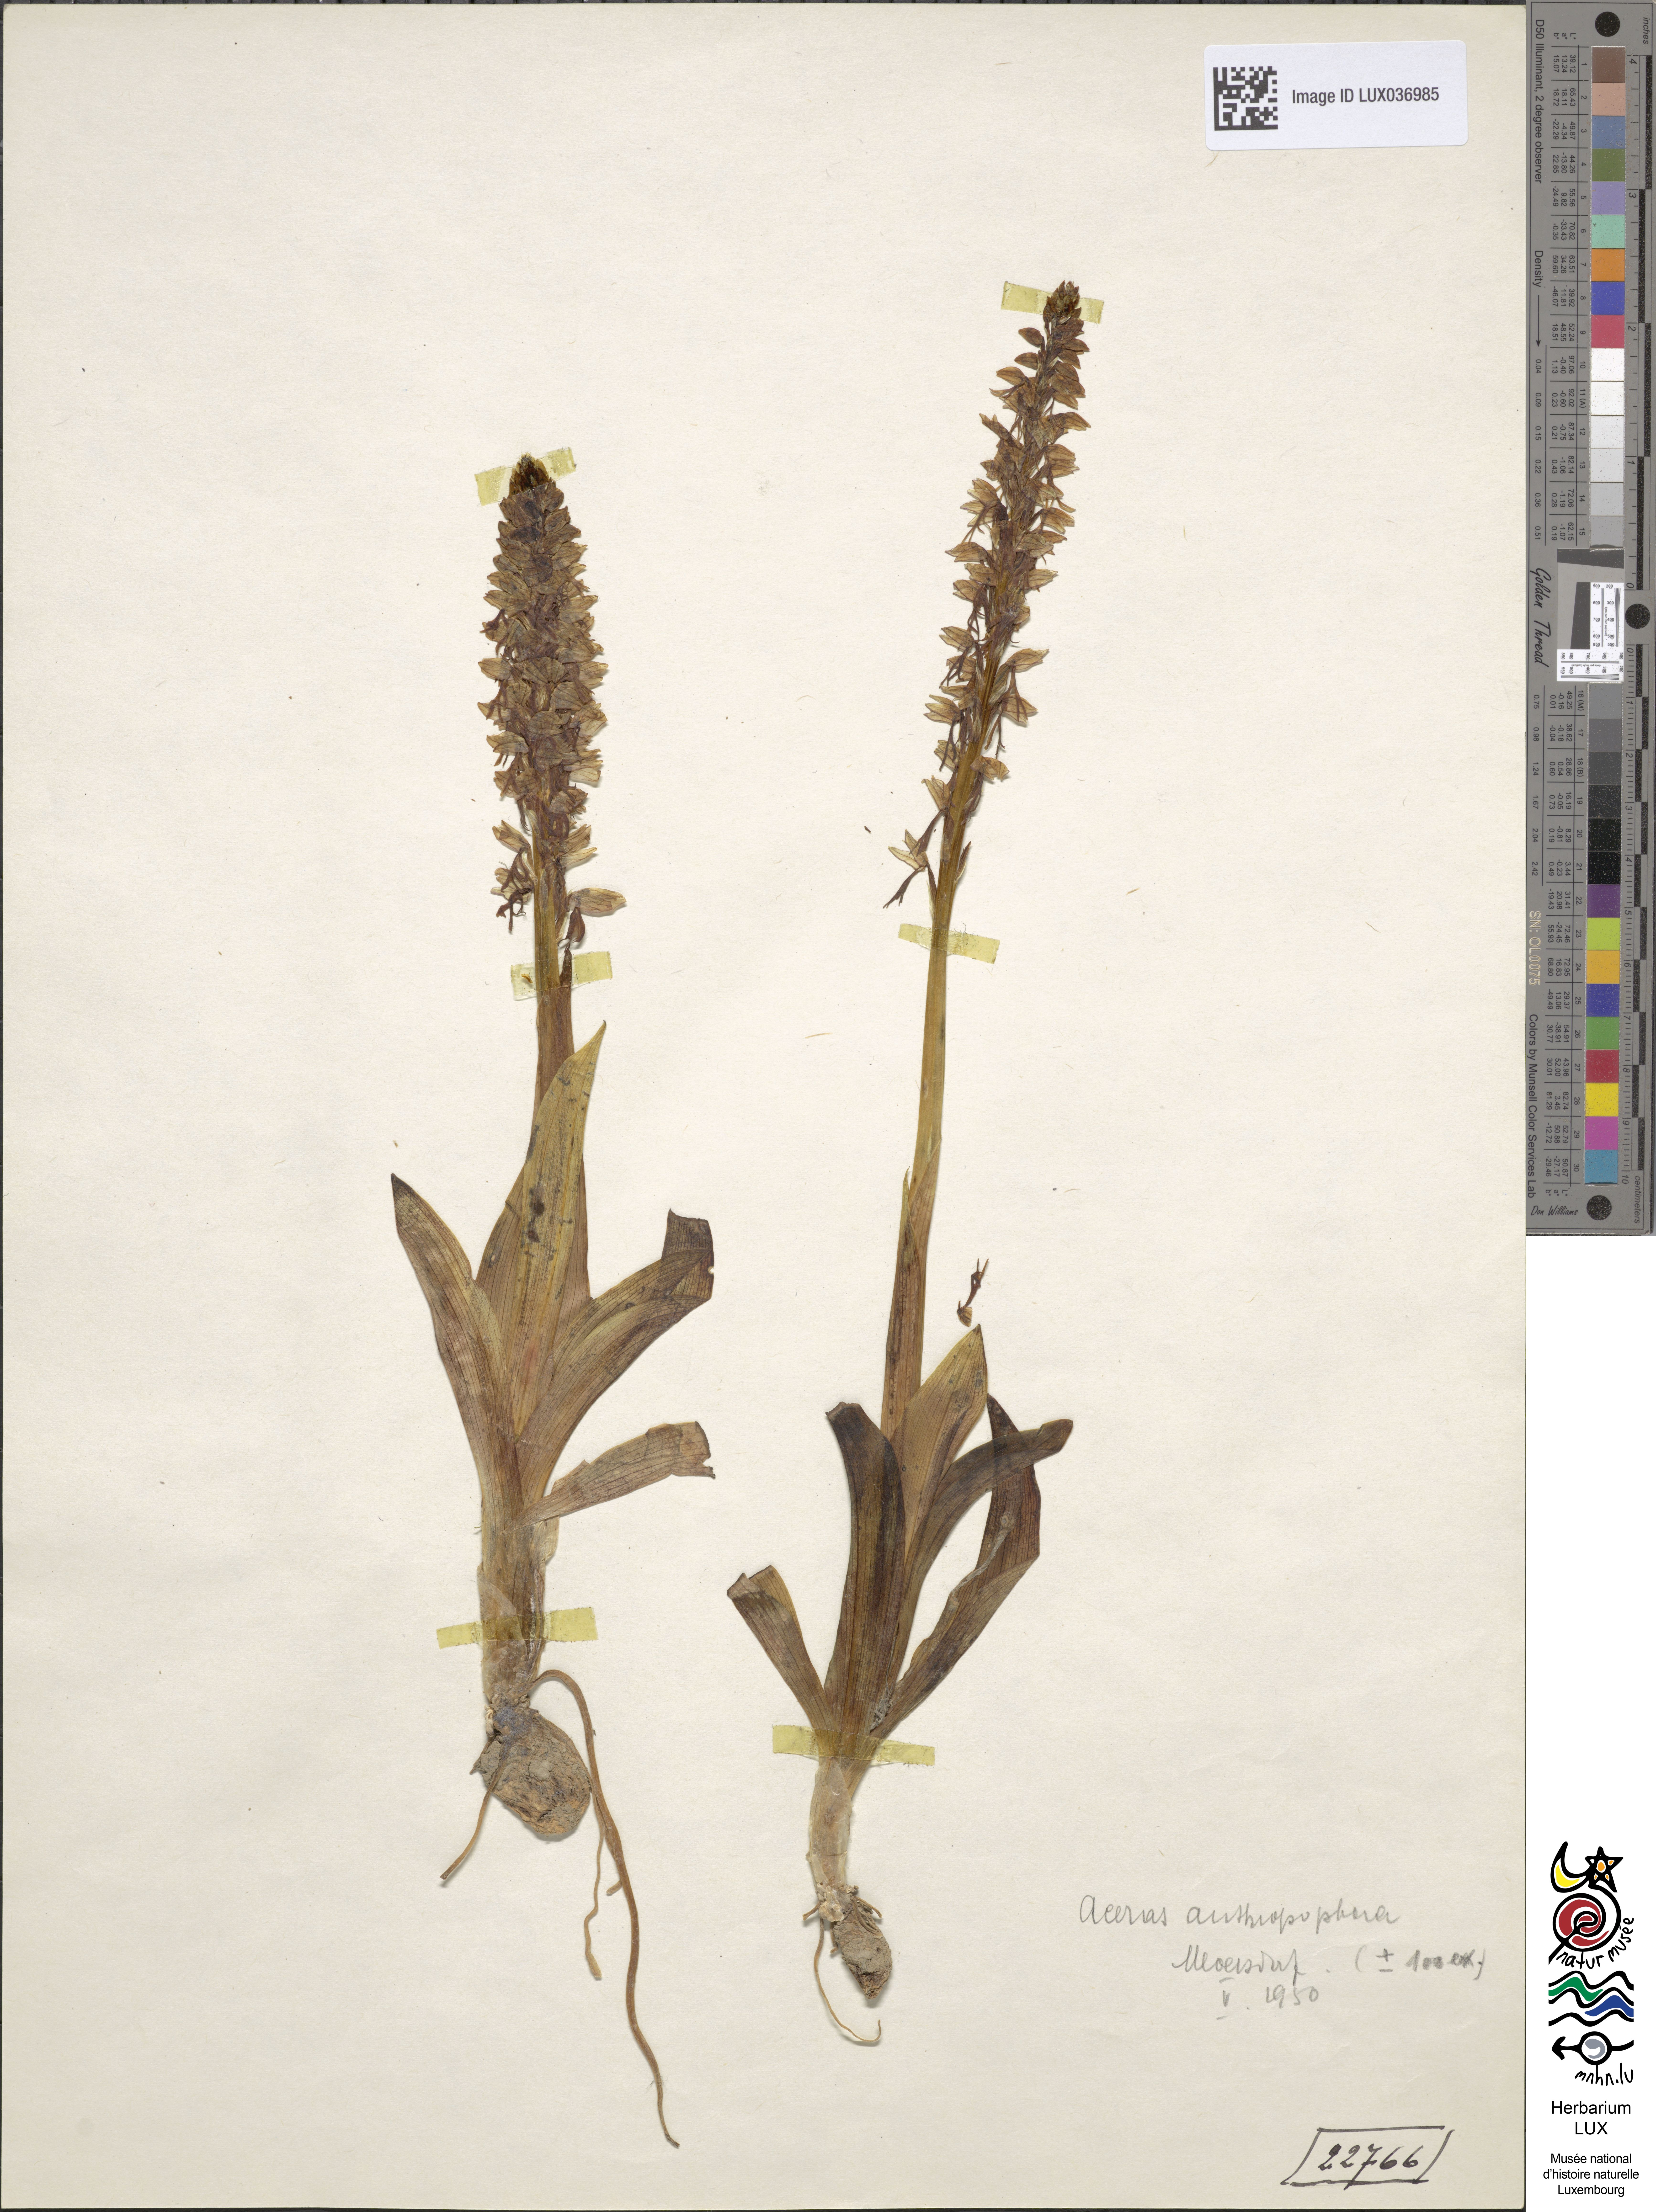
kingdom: Plantae
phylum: Tracheophyta
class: Liliopsida
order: Asparagales
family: Orchidaceae
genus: Orchis
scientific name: Orchis anthropophora
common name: Man orchid
